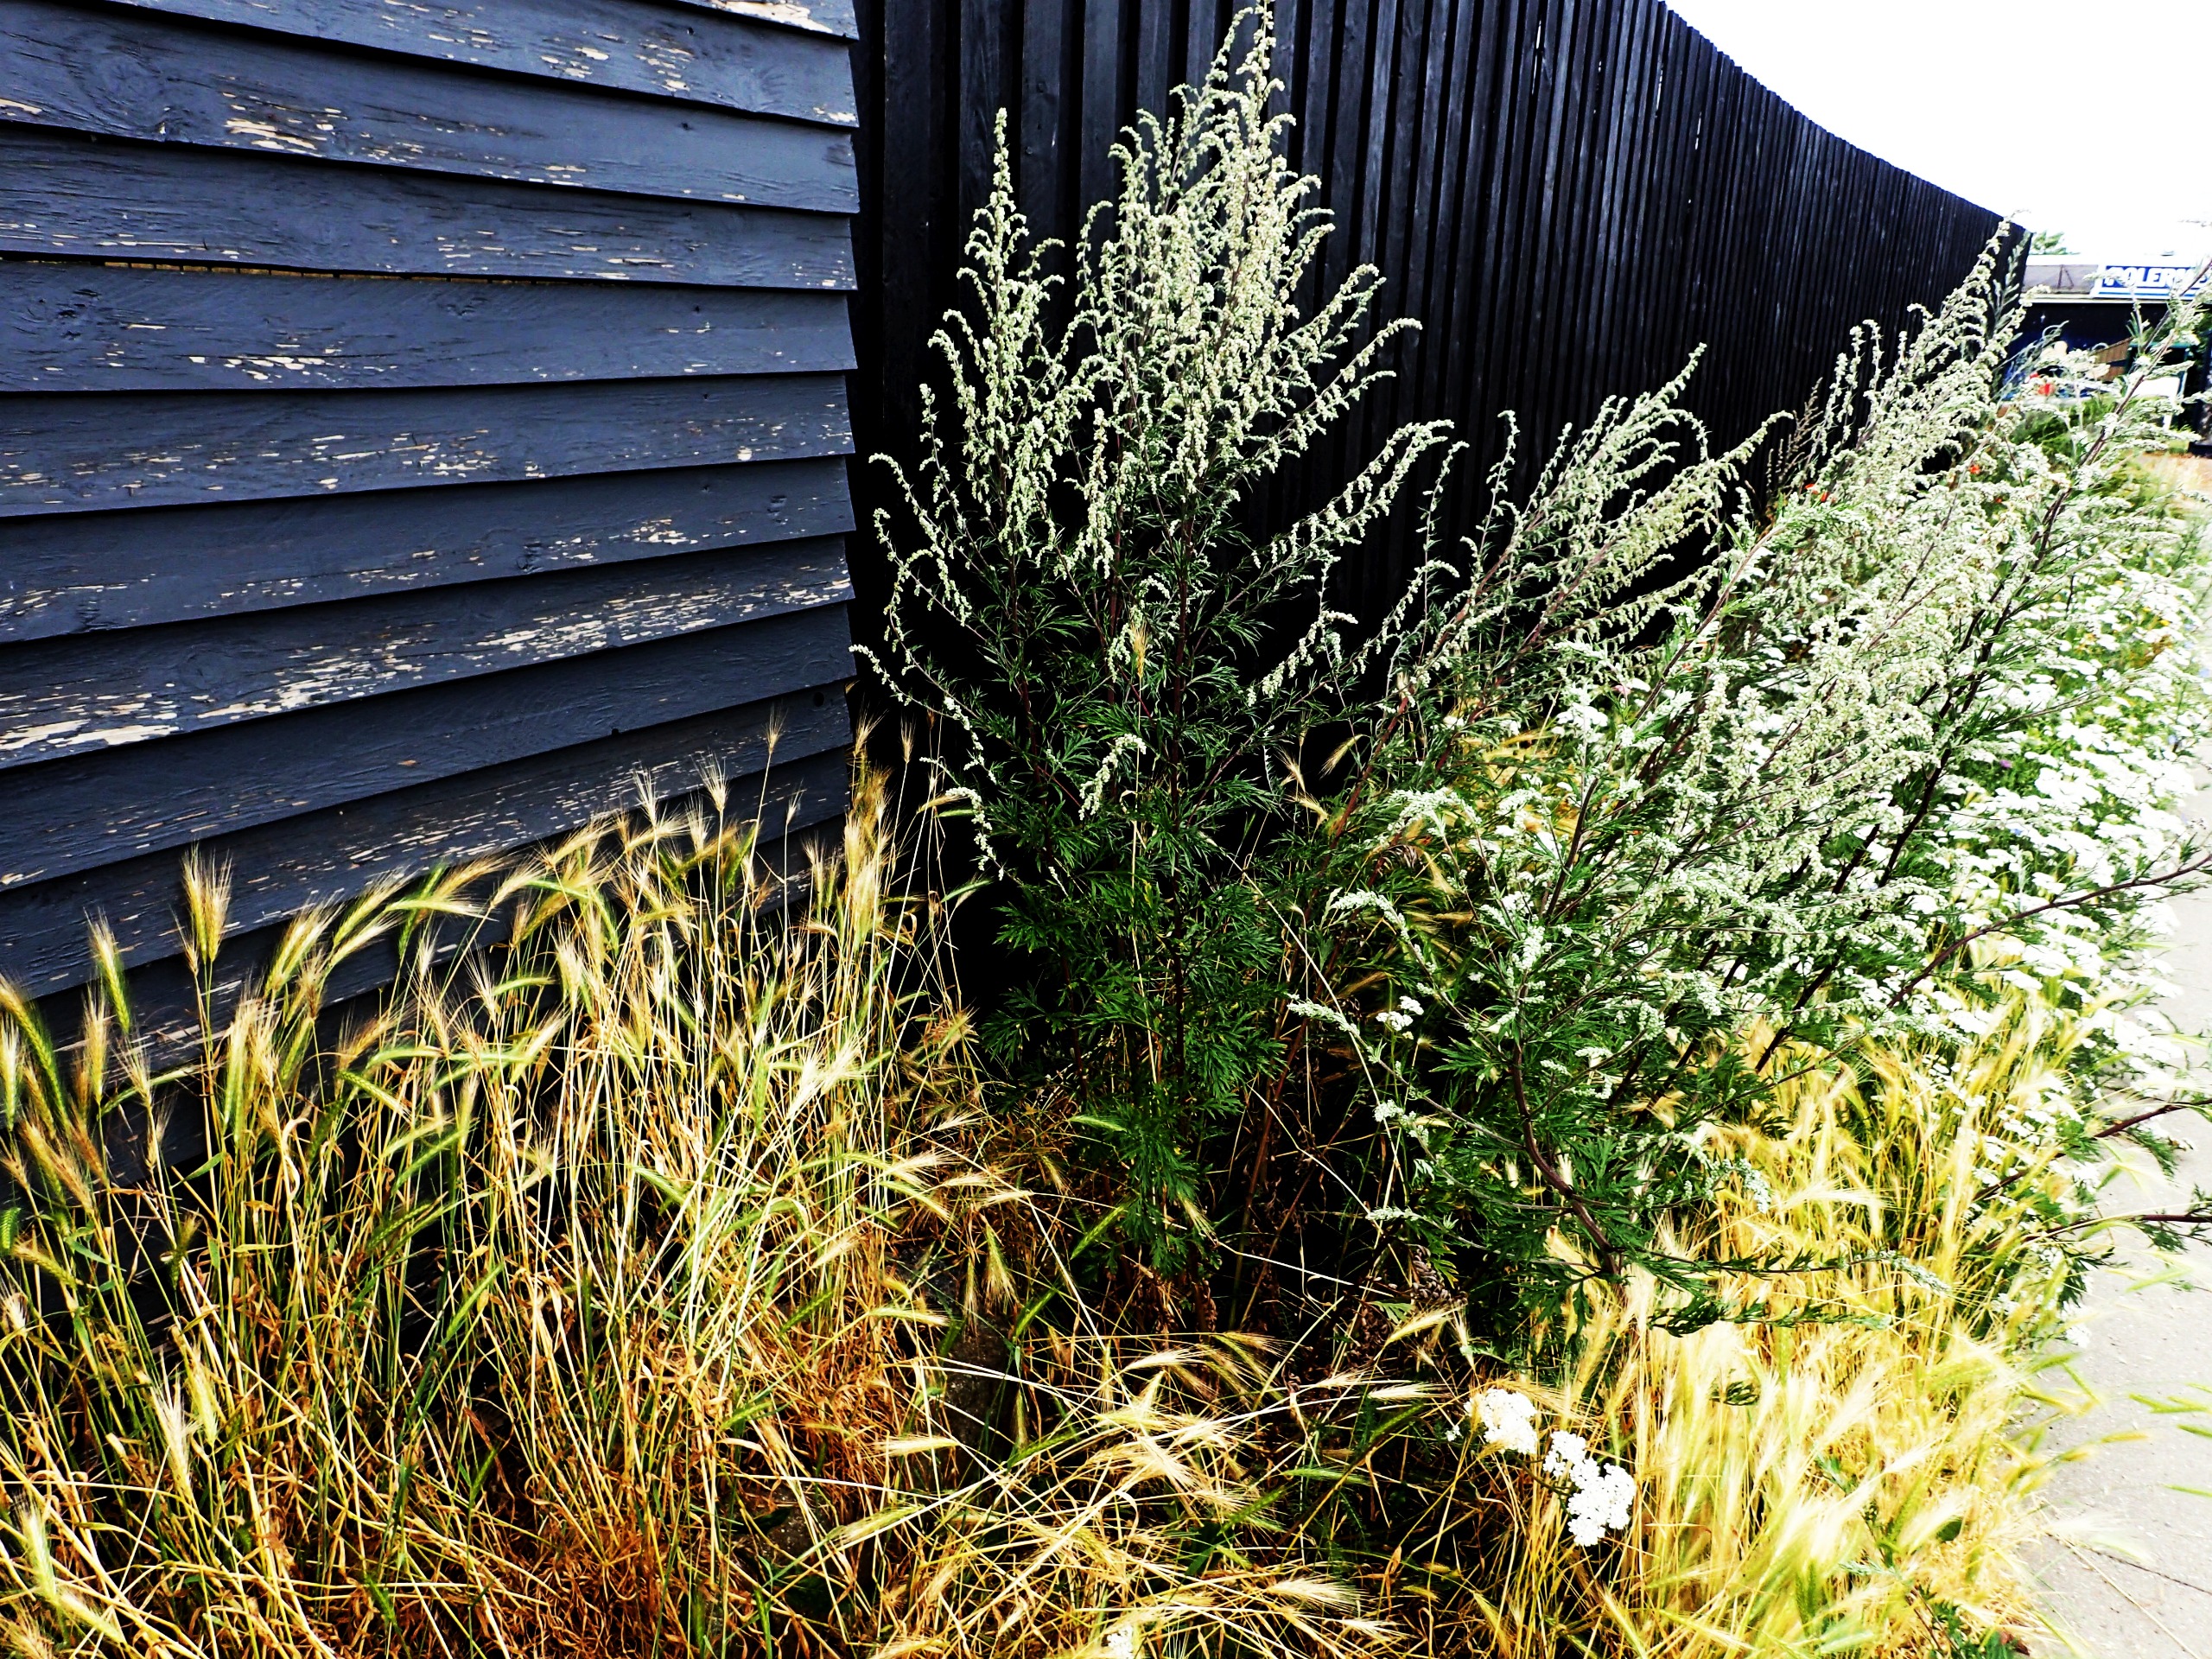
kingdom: Plantae
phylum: Tracheophyta
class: Magnoliopsida
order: Asterales
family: Asteraceae
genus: Artemisia
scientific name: Artemisia vulgaris
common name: Grå-bynke
